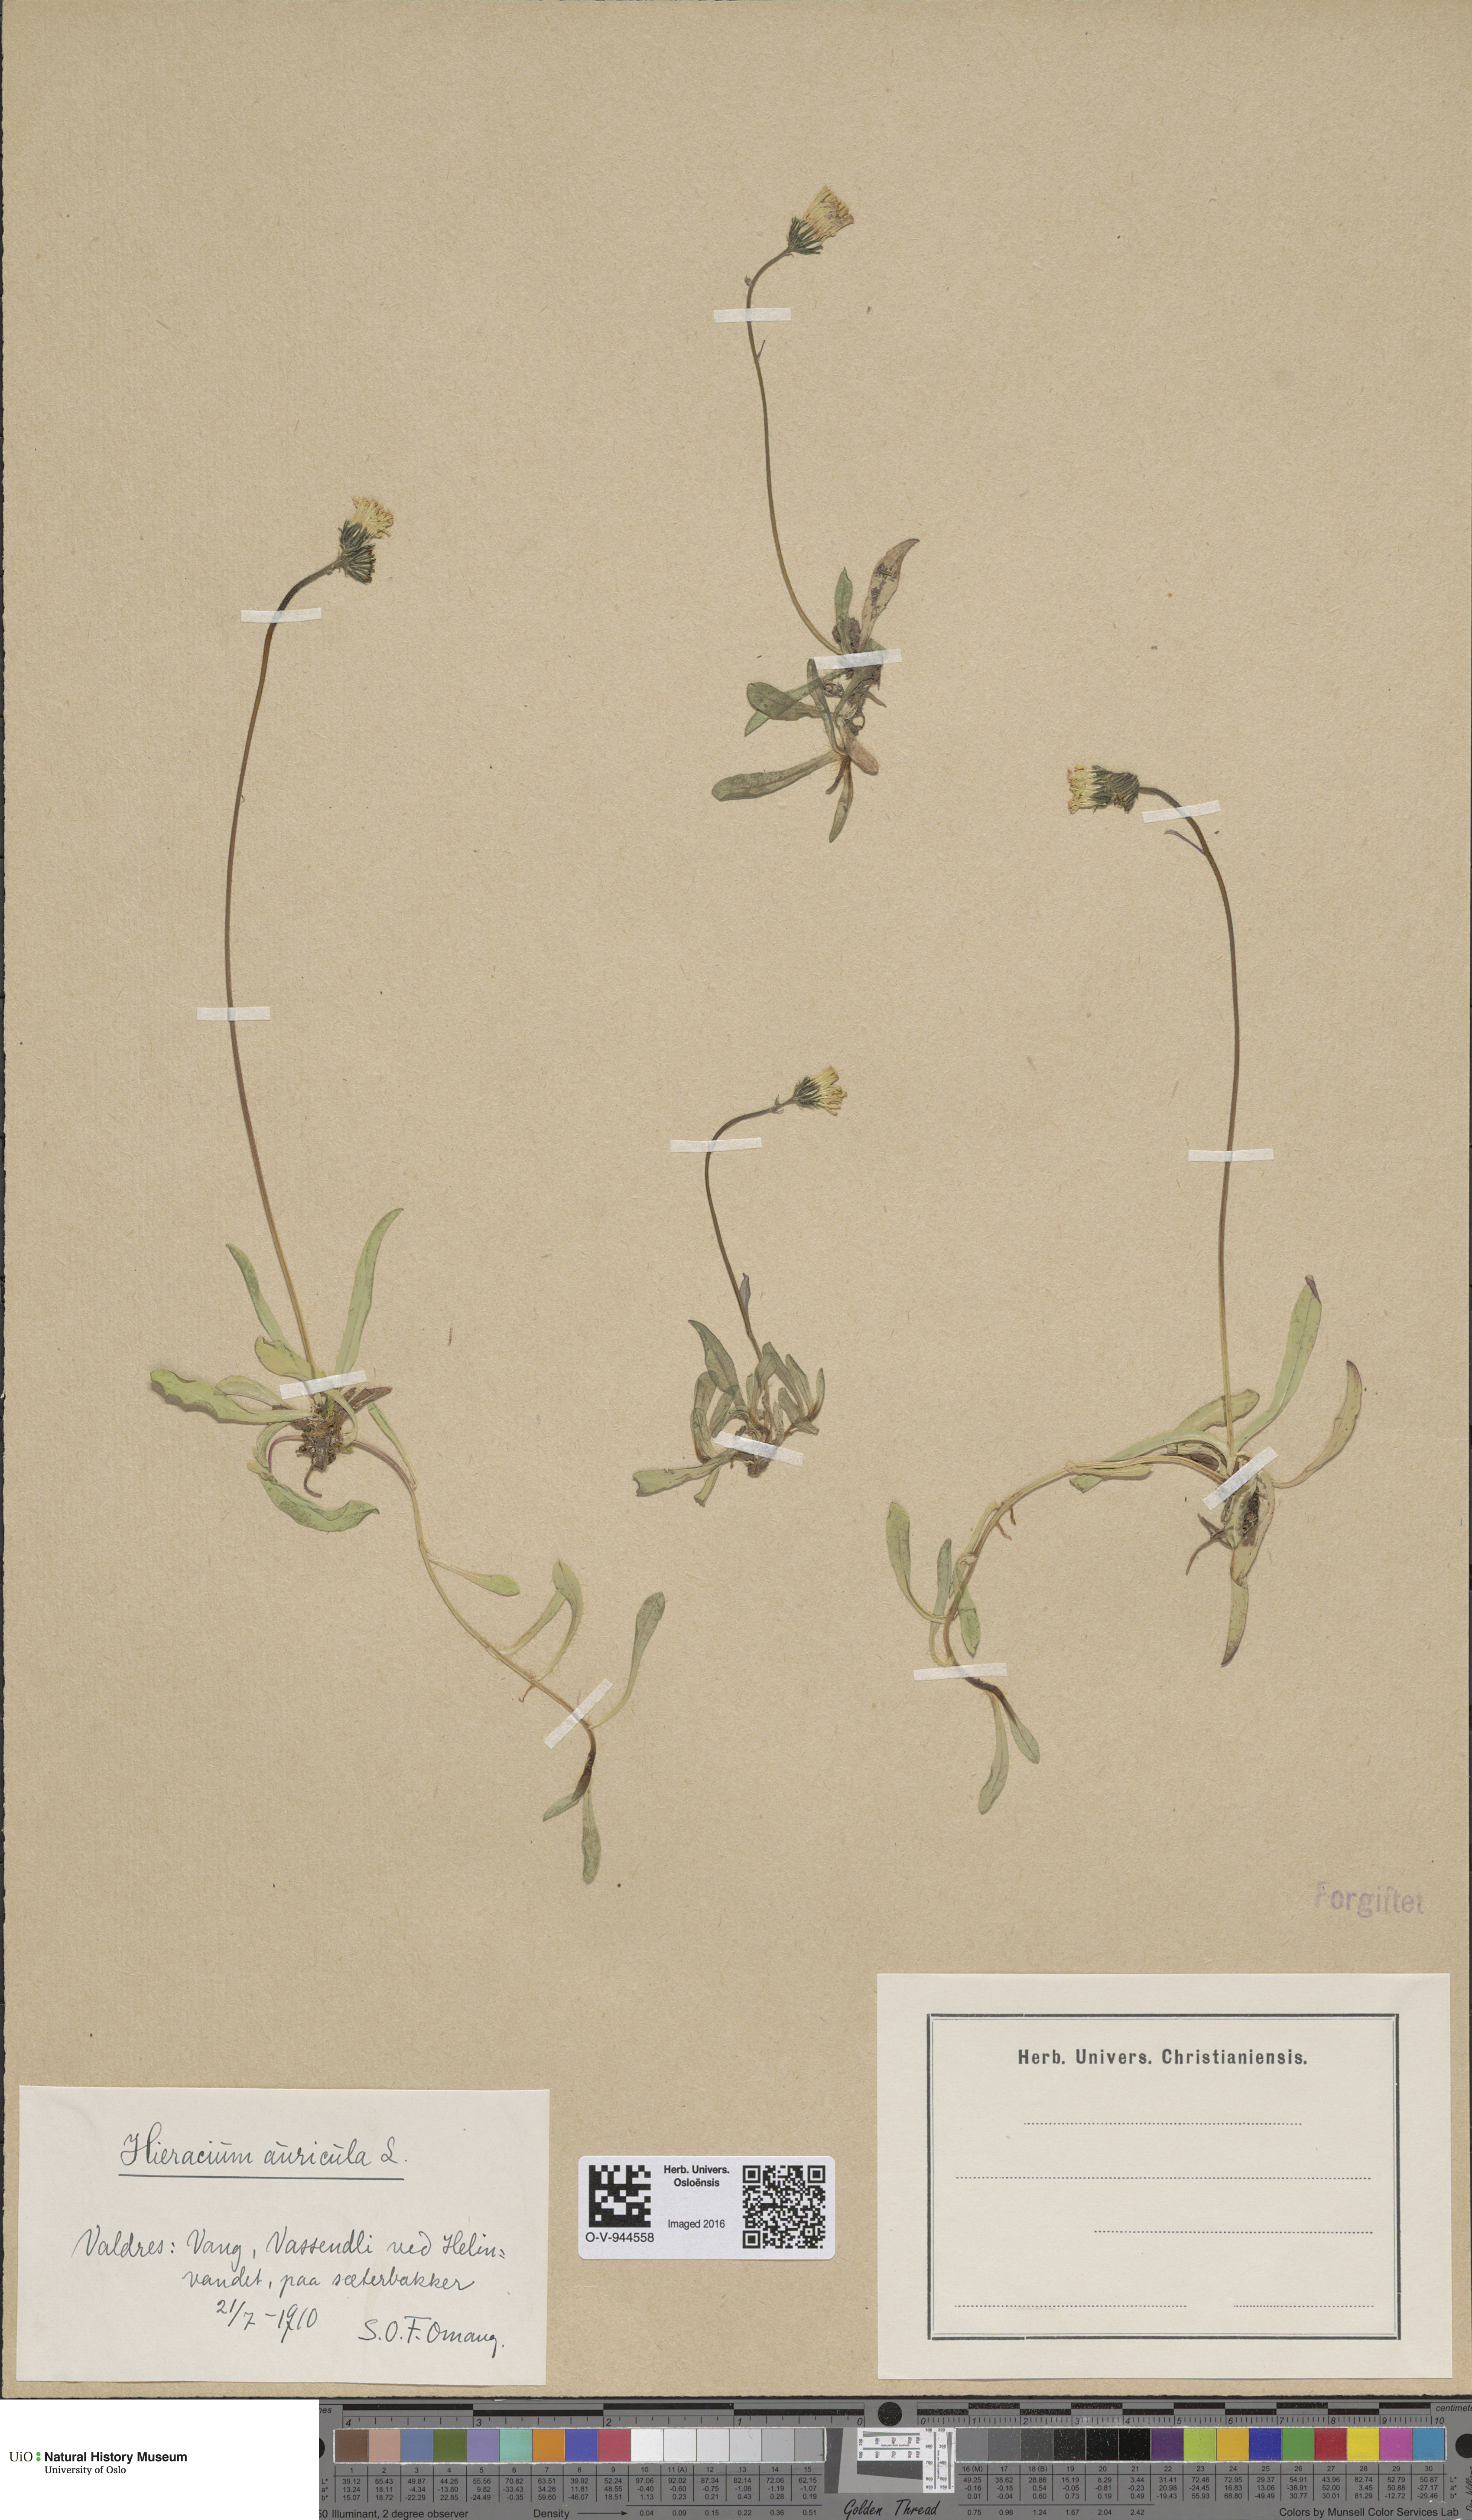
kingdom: Plantae
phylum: Tracheophyta
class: Magnoliopsida
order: Asterales
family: Asteraceae
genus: Pilosella
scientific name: Pilosella lactucella
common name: Glaucous fox-and-cubs
